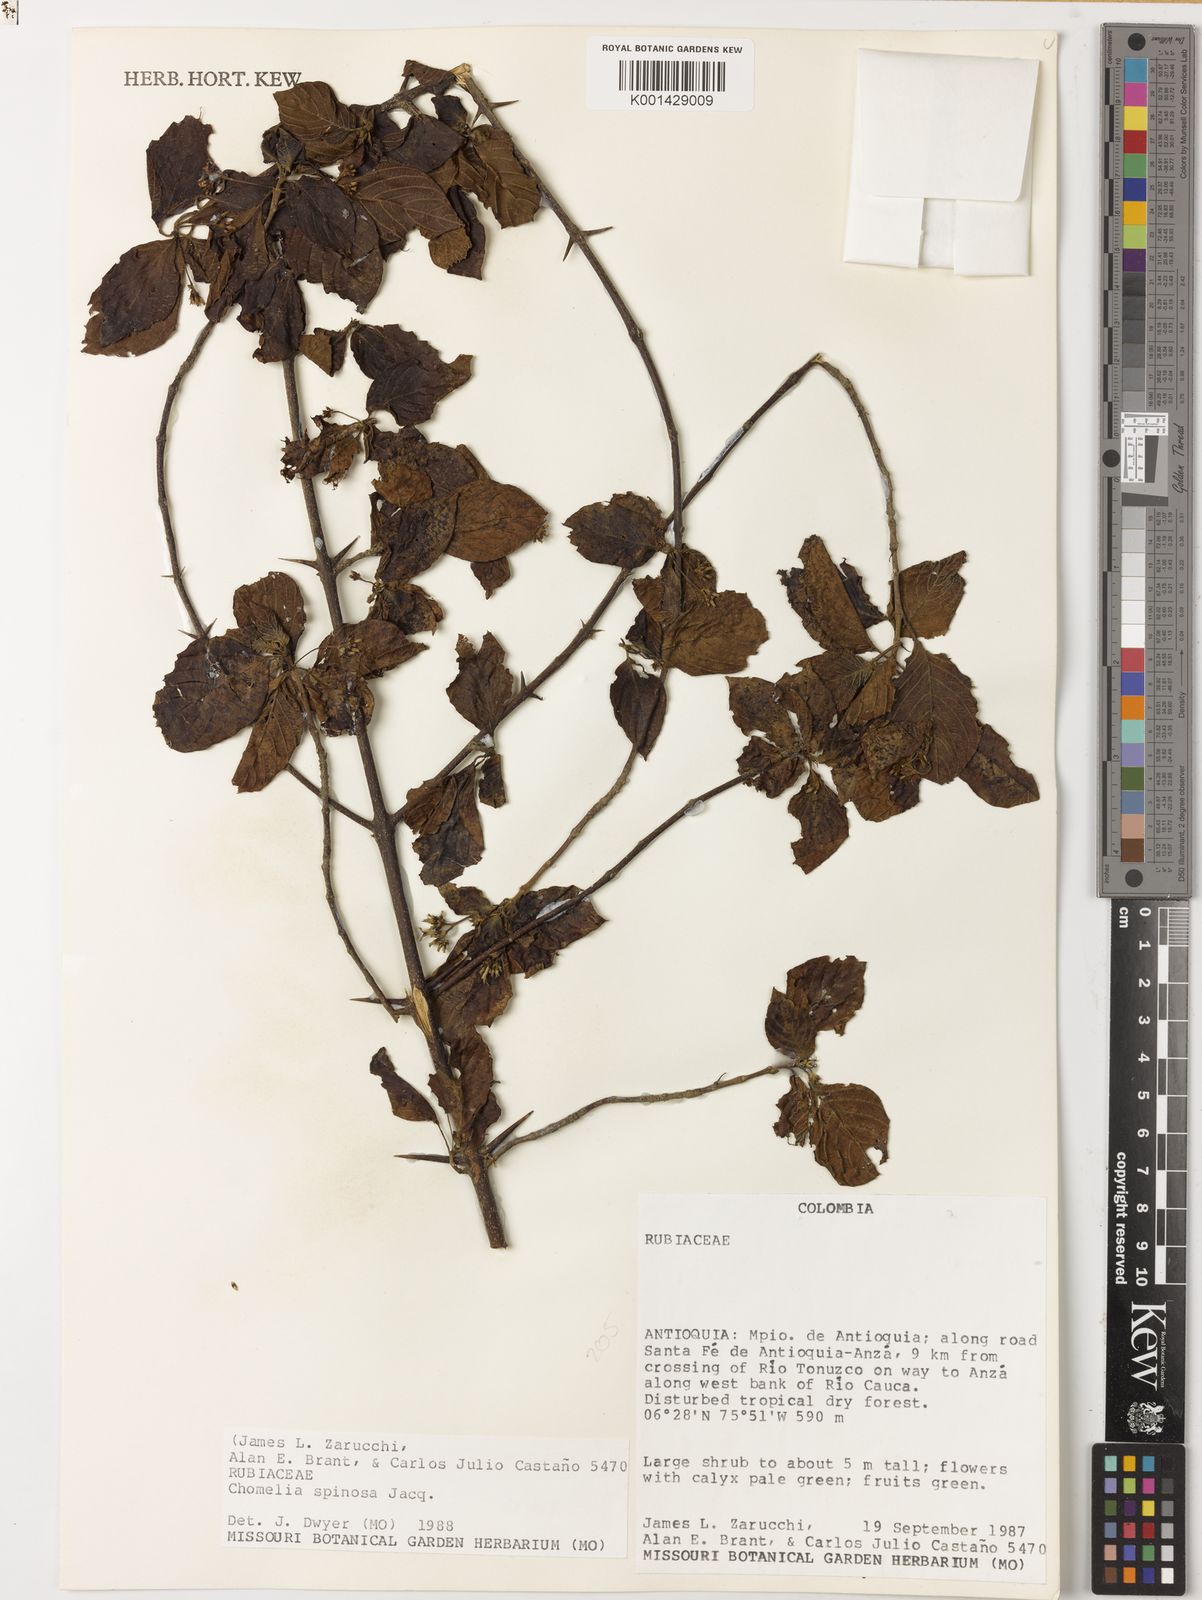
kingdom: Plantae
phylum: Tracheophyta
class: Magnoliopsida
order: Gentianales
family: Rubiaceae
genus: Chomelia
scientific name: Chomelia spinosa
